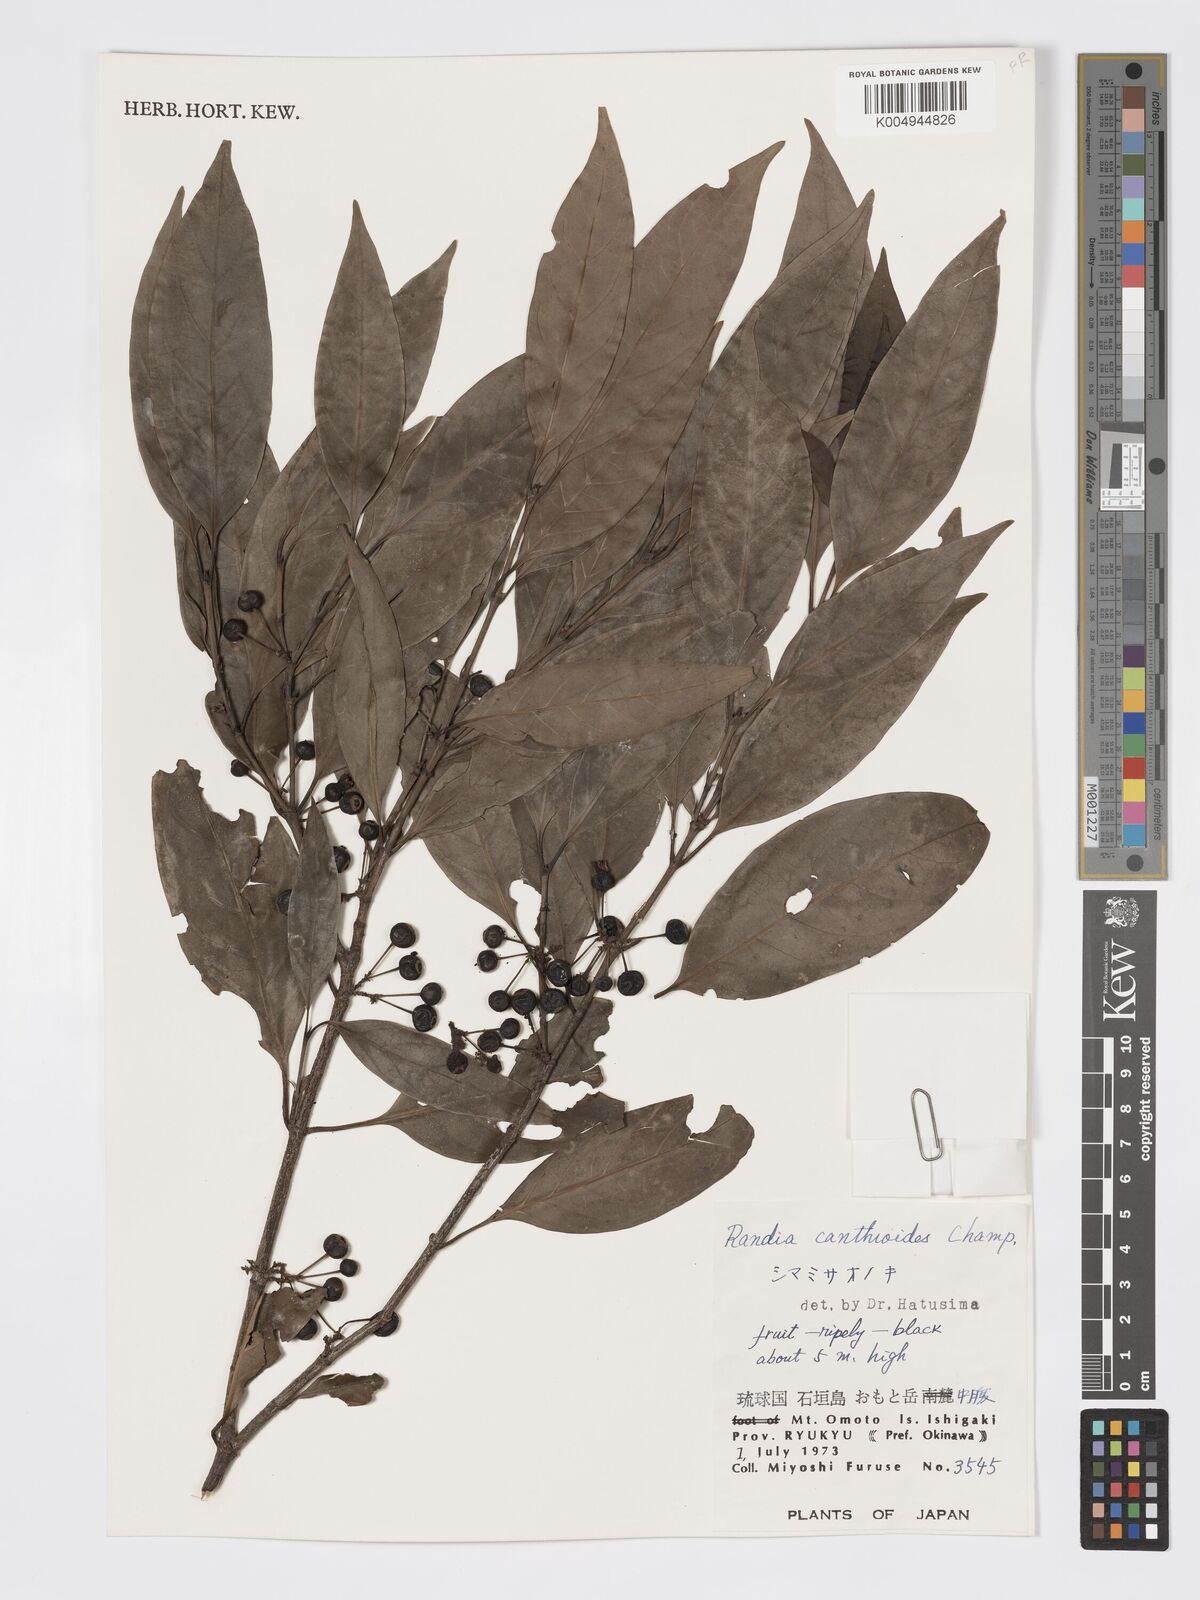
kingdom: Plantae
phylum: Tracheophyta
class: Magnoliopsida
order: Gentianales
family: Rubiaceae
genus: Aidia
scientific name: Aidia canthioides
